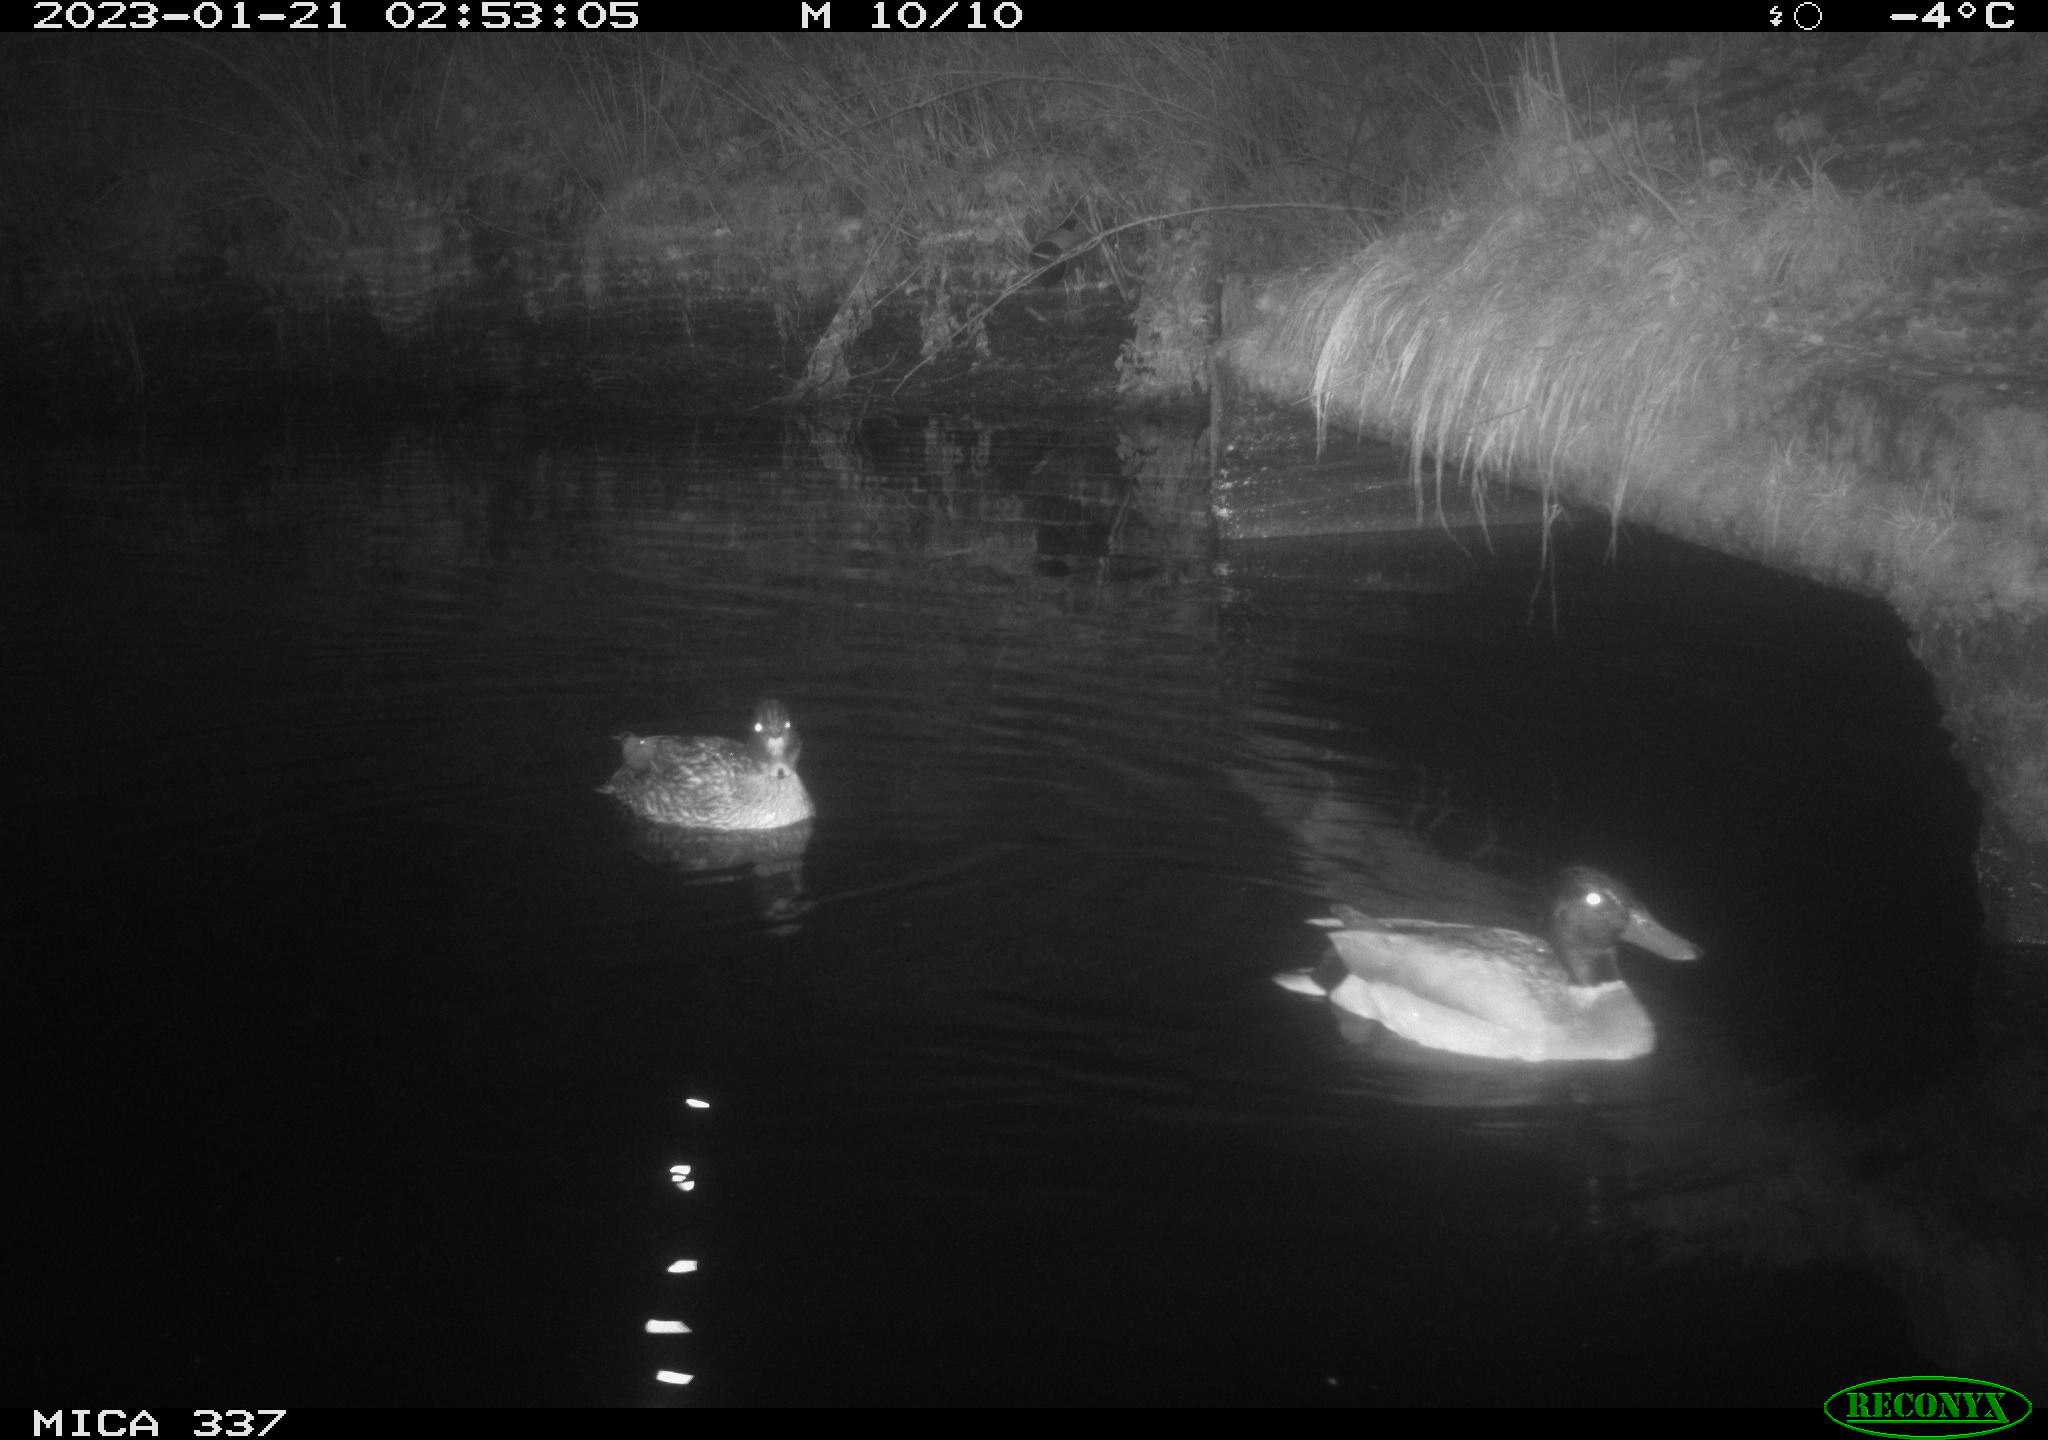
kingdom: Animalia
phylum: Chordata
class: Aves
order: Anseriformes
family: Anatidae
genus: Anas
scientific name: Anas
